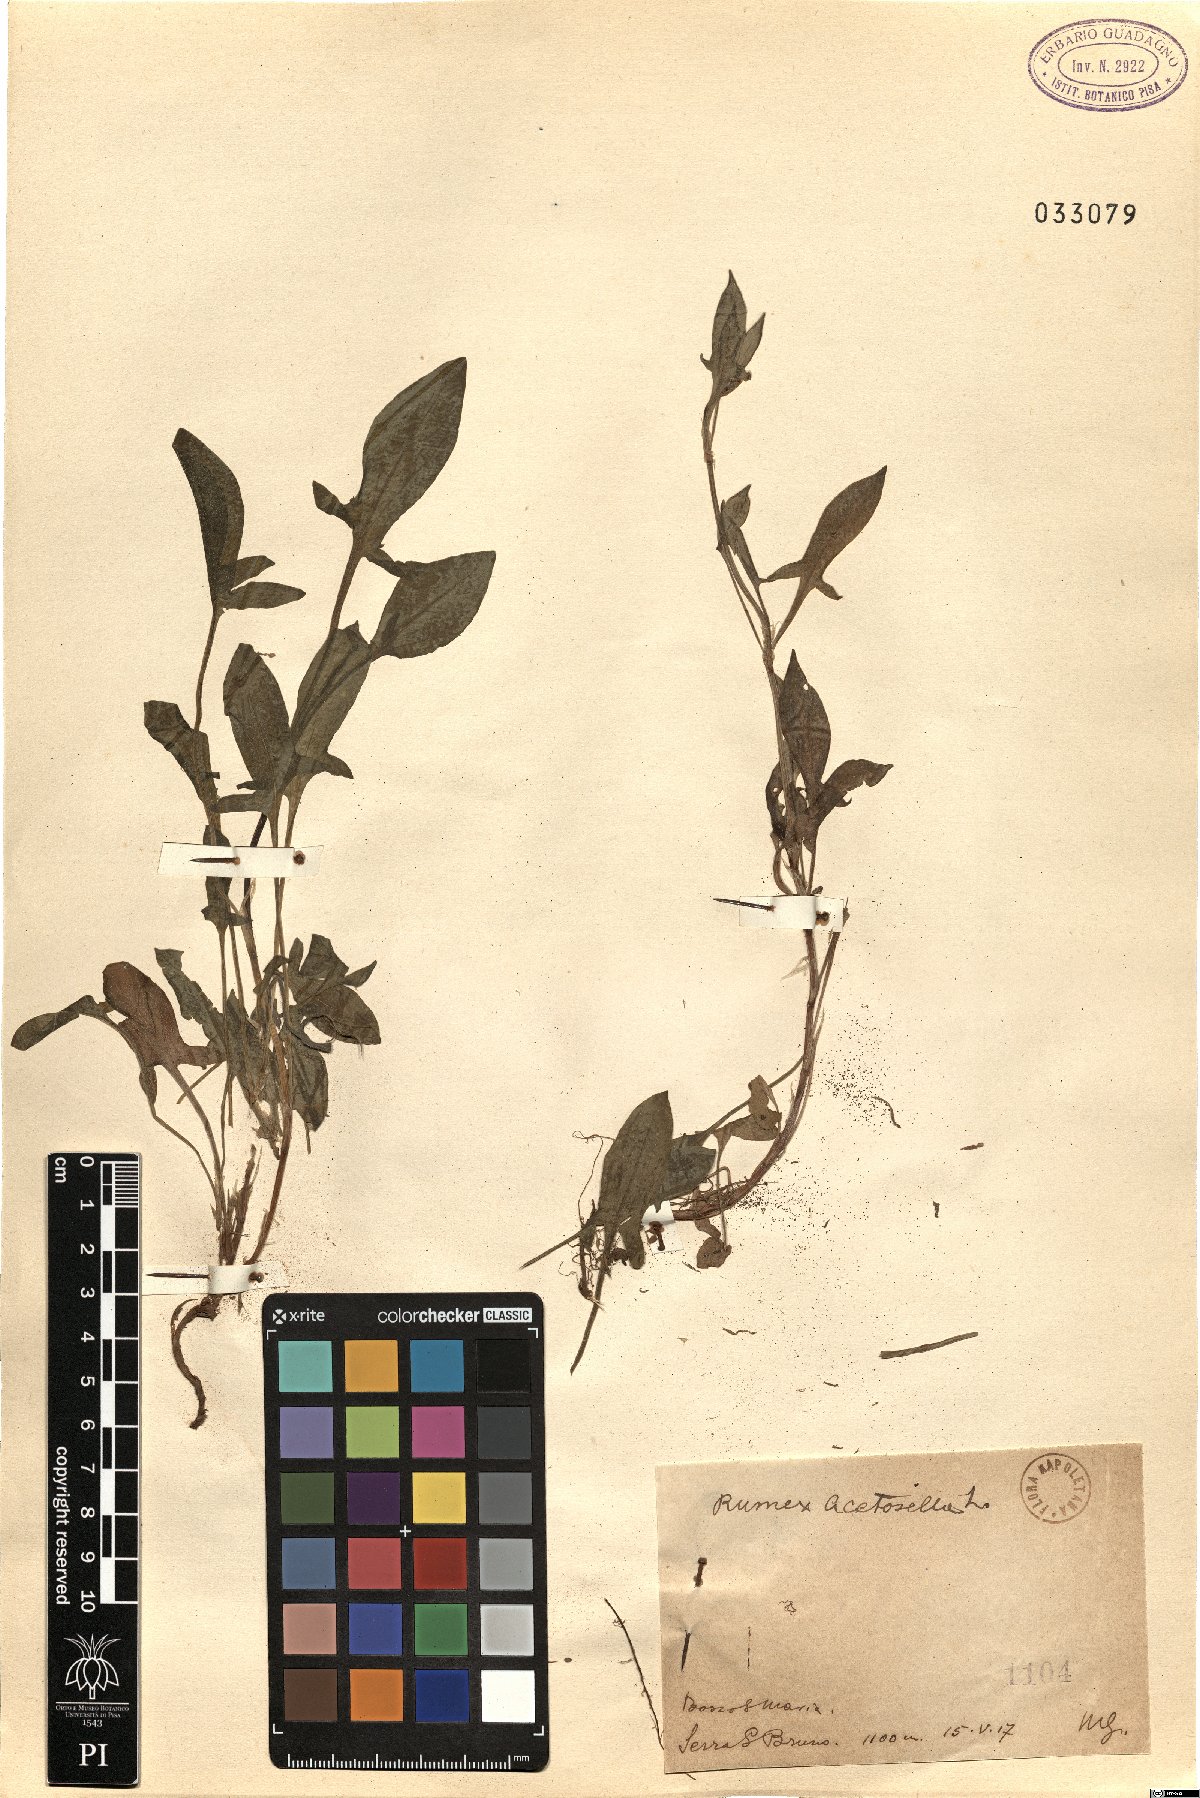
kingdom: Plantae
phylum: Tracheophyta
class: Magnoliopsida
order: Caryophyllales
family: Polygonaceae
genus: Rumex
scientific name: Rumex acetosella
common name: Common sheep sorrel
